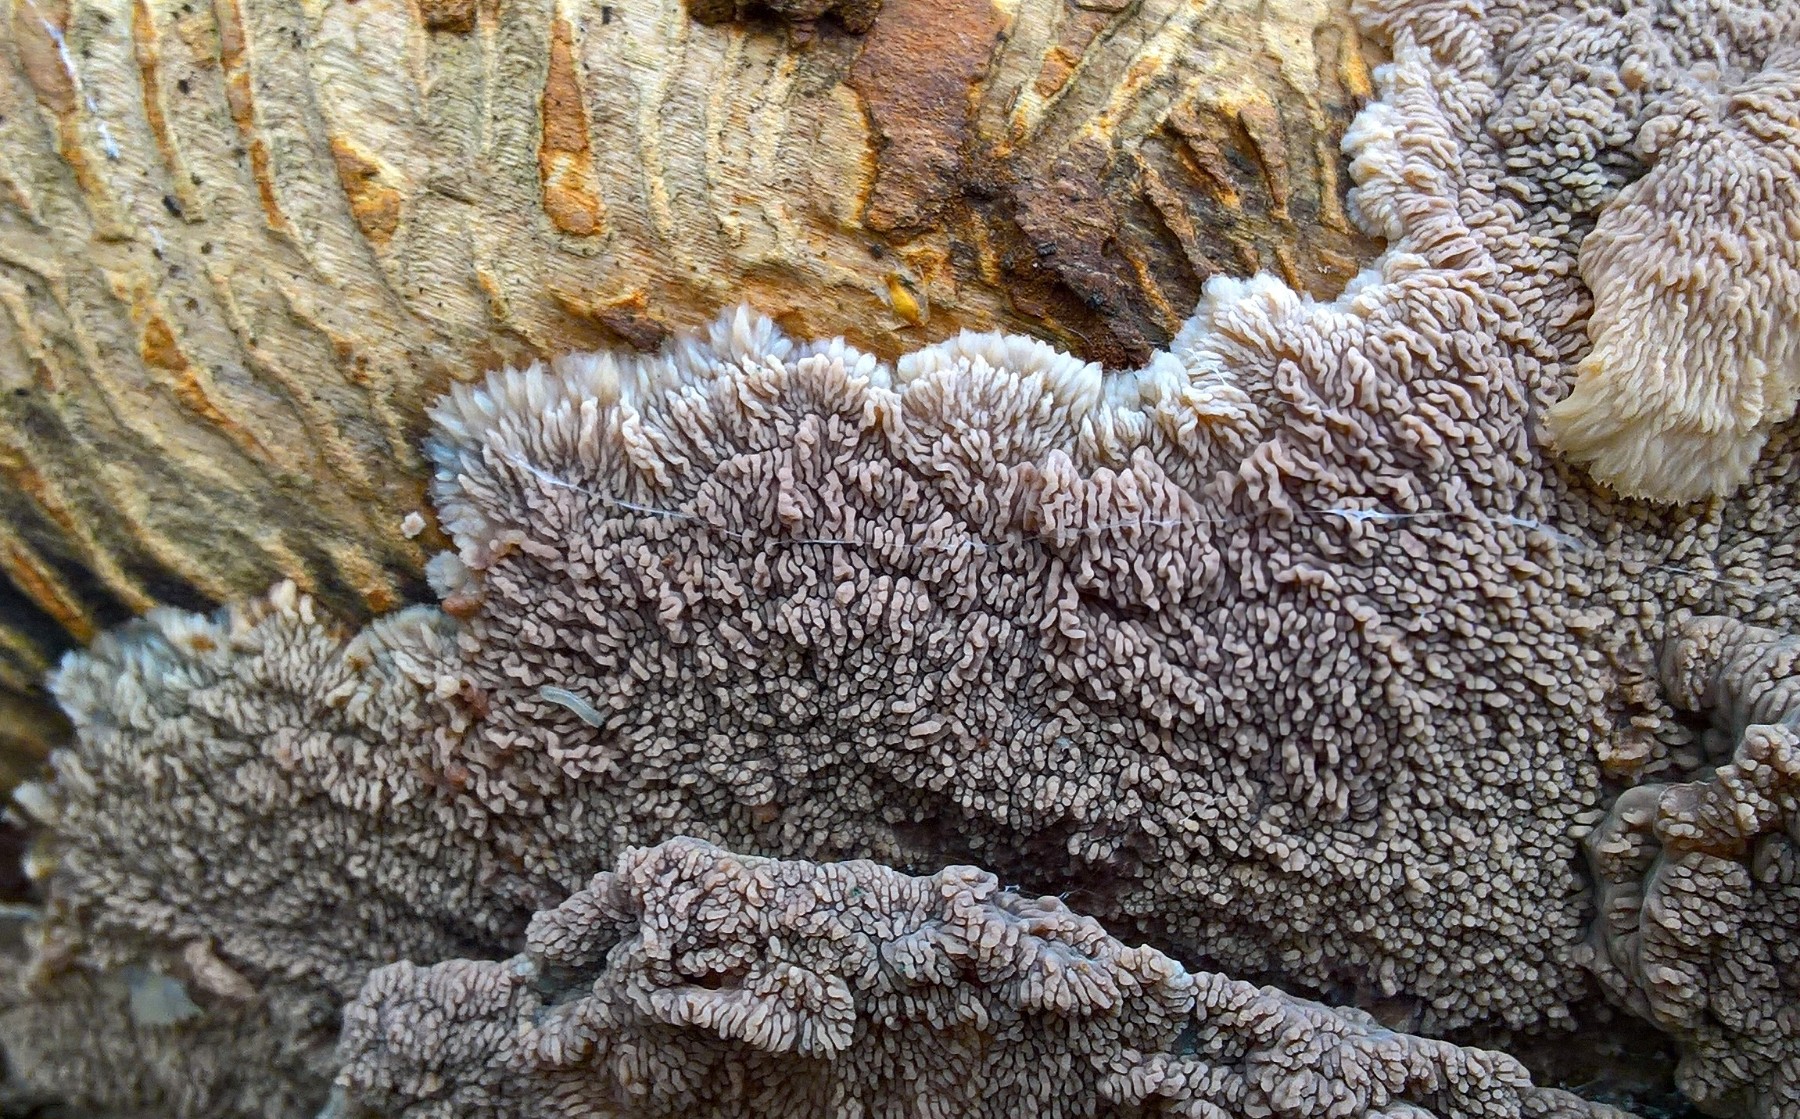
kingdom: Fungi
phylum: Basidiomycota
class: Agaricomycetes
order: Polyporales
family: Meruliaceae
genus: Phlebia
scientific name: Phlebia radiata
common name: stråle-åresvamp
